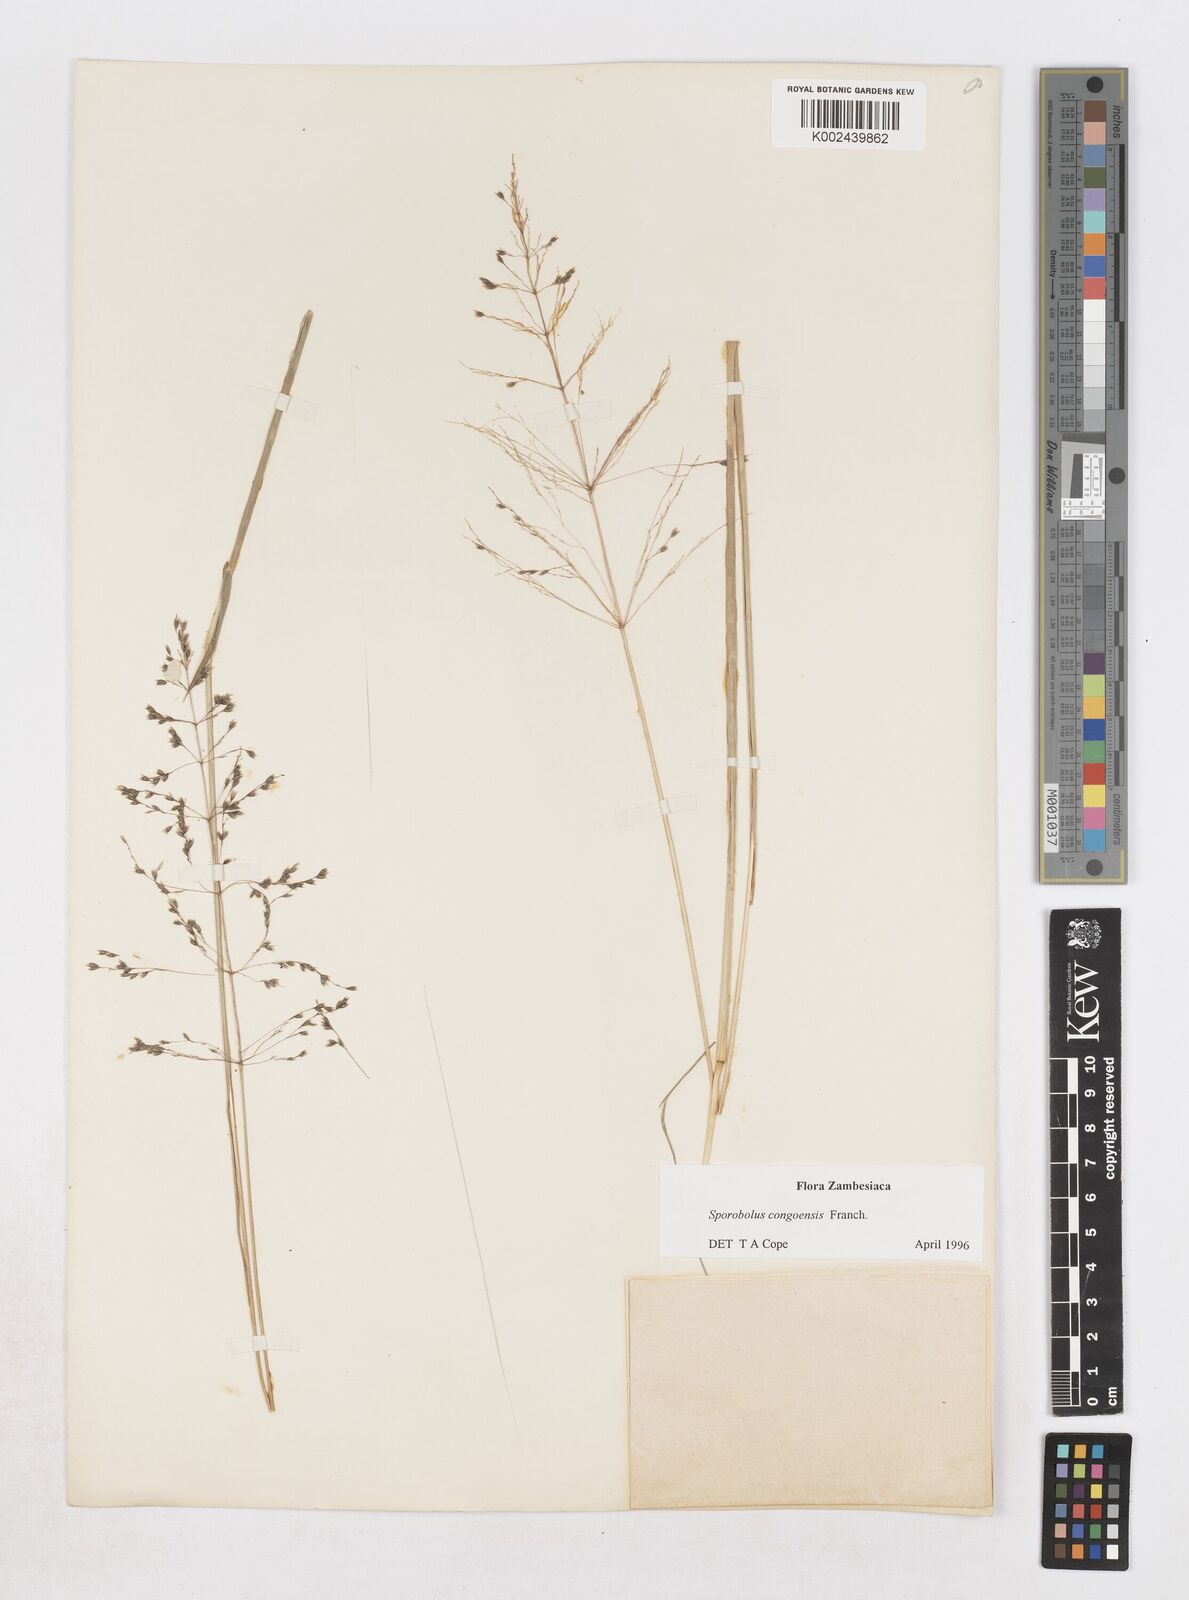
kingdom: Plantae
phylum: Tracheophyta
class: Liliopsida
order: Poales
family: Poaceae
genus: Sporobolus
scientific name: Sporobolus congoensis
